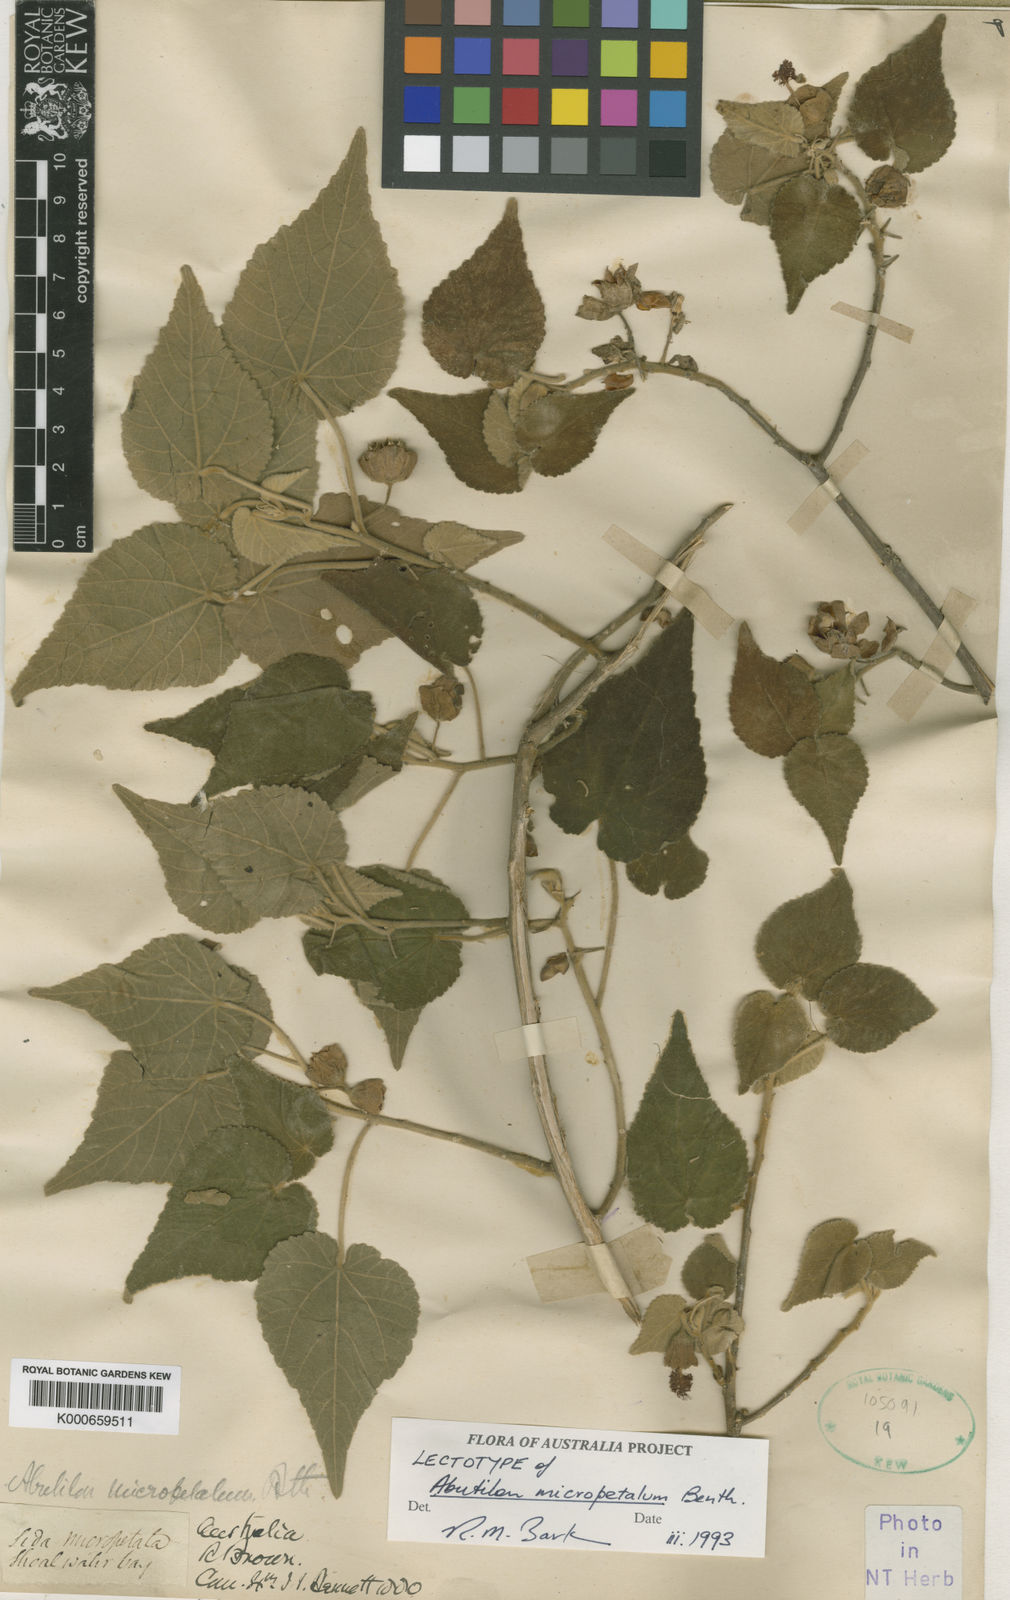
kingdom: Plantae
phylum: Tracheophyta
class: Magnoliopsida
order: Malvales
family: Malvaceae
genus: Abutilon
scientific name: Abutilon micropetalum
